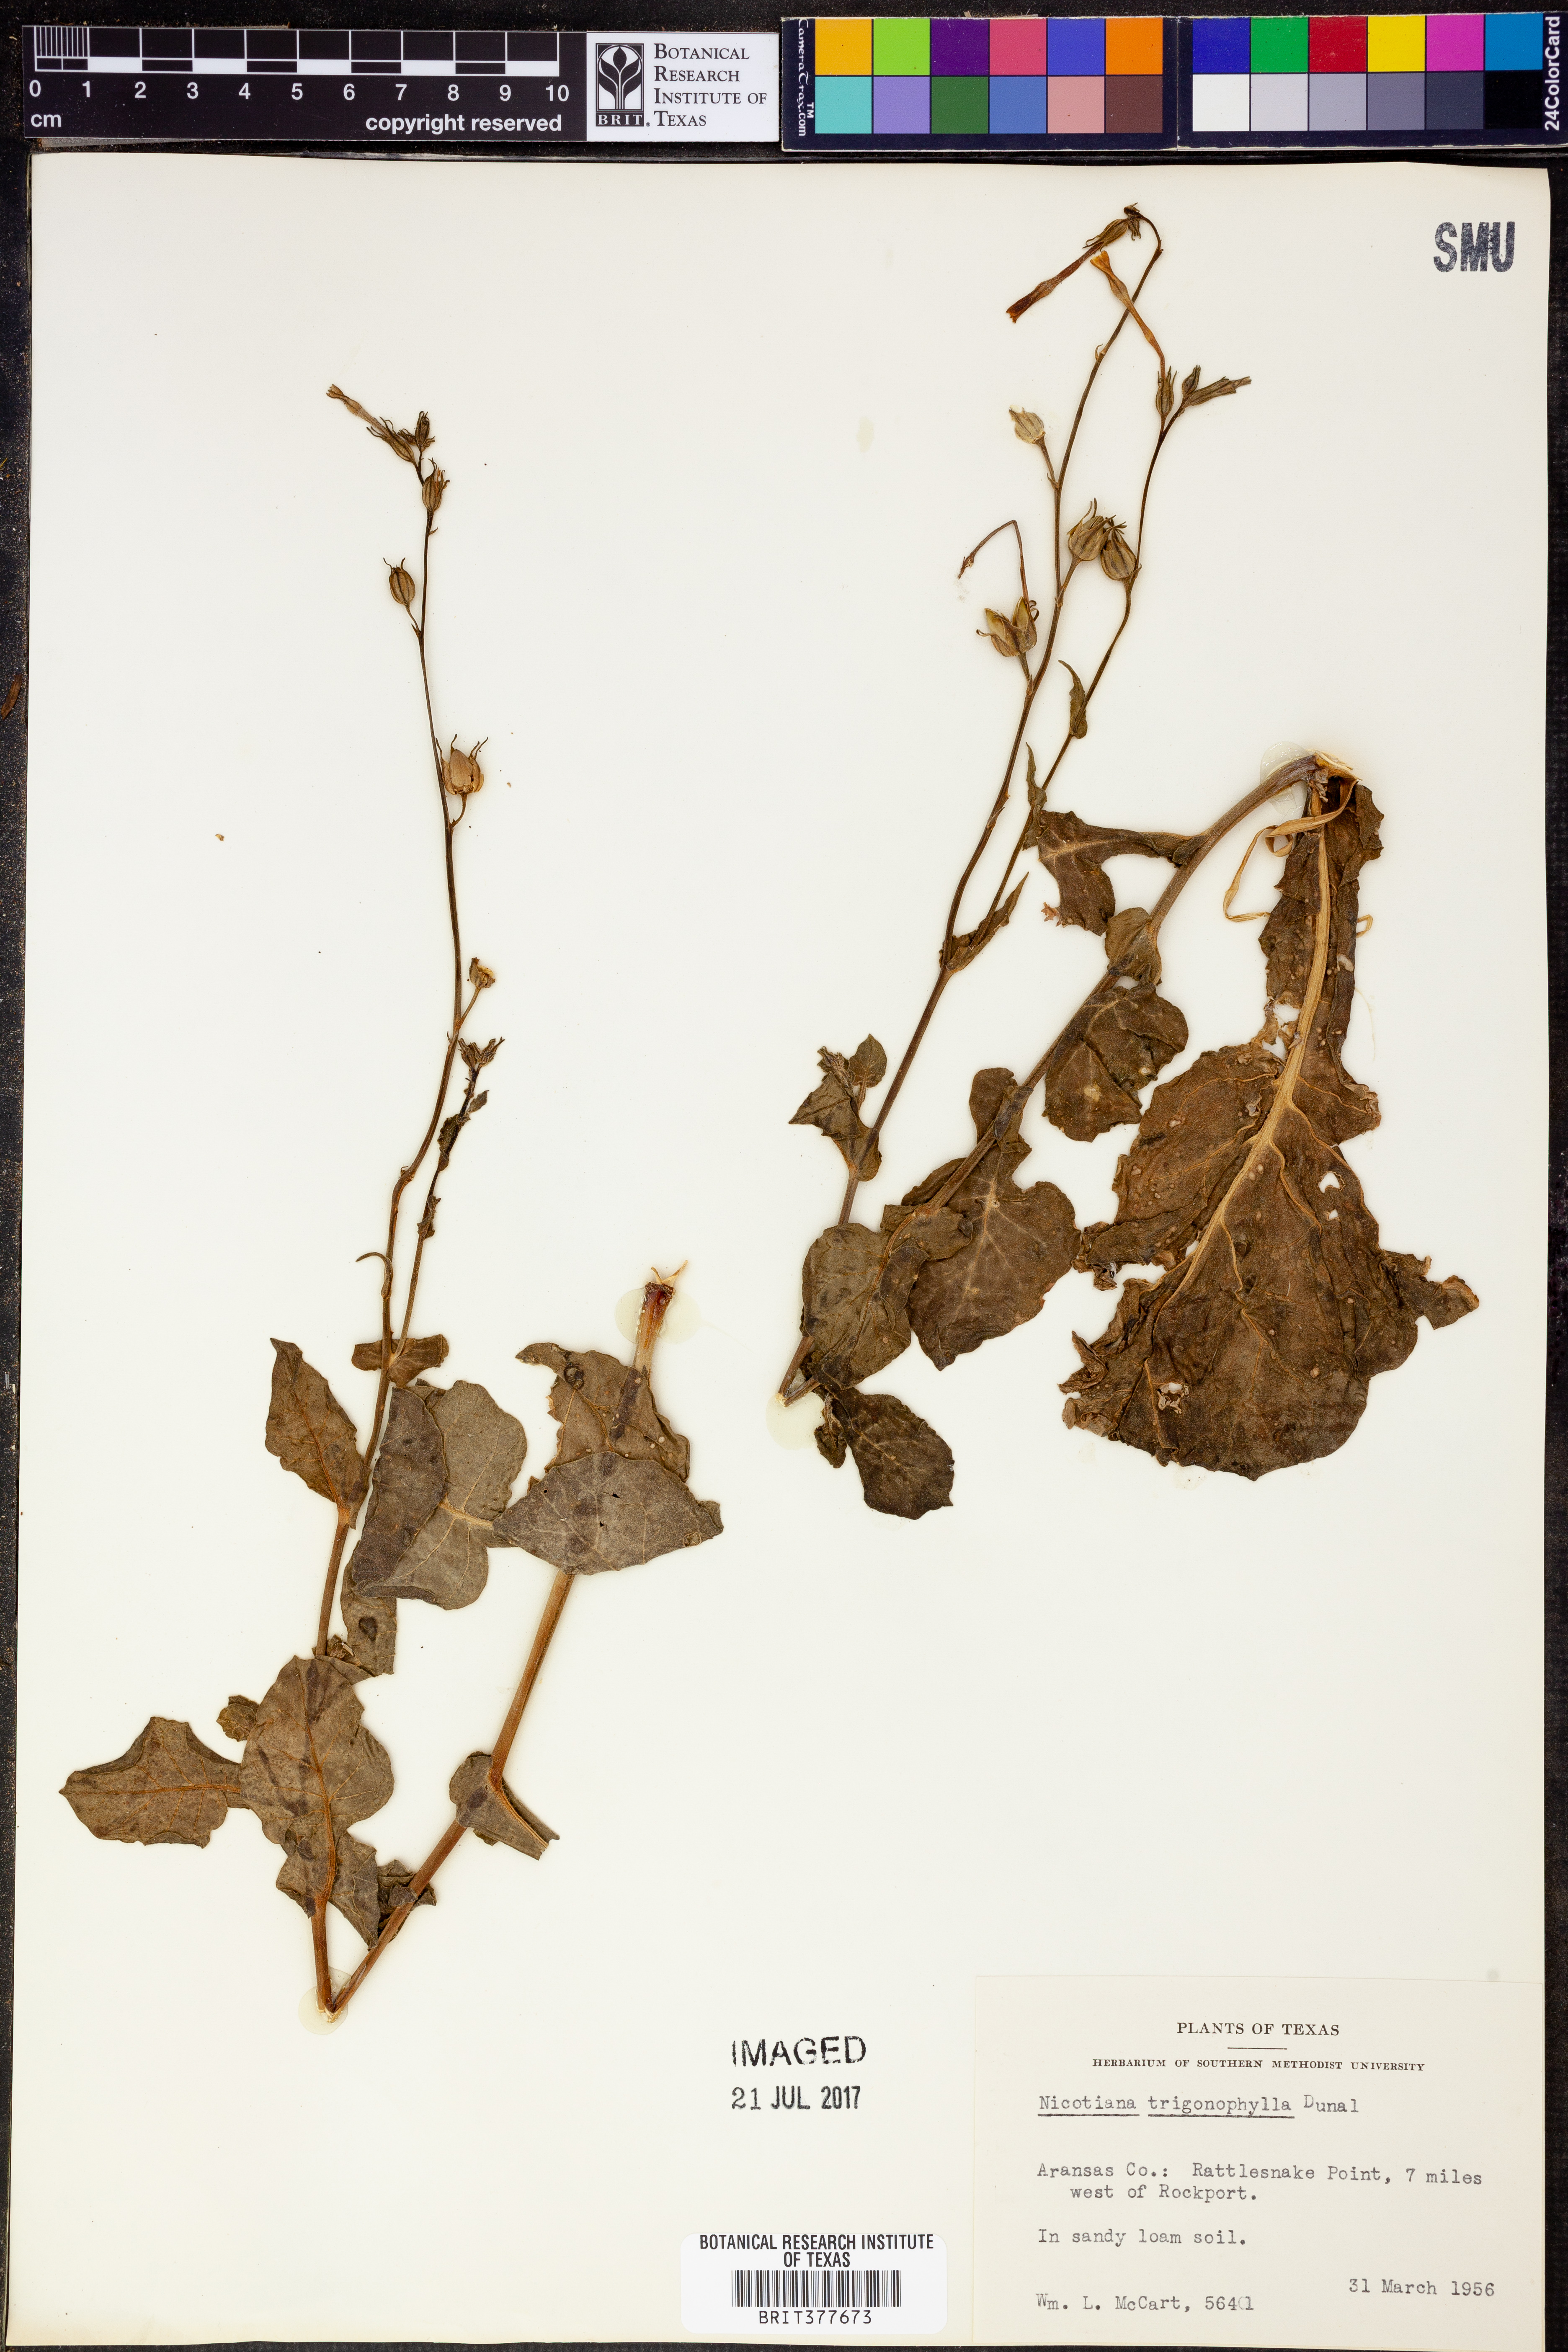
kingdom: Plantae
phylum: Tracheophyta
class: Magnoliopsida
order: Solanales
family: Solanaceae
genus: Nicotiana
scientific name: Nicotiana obtusifolia
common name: Desert tobacco
